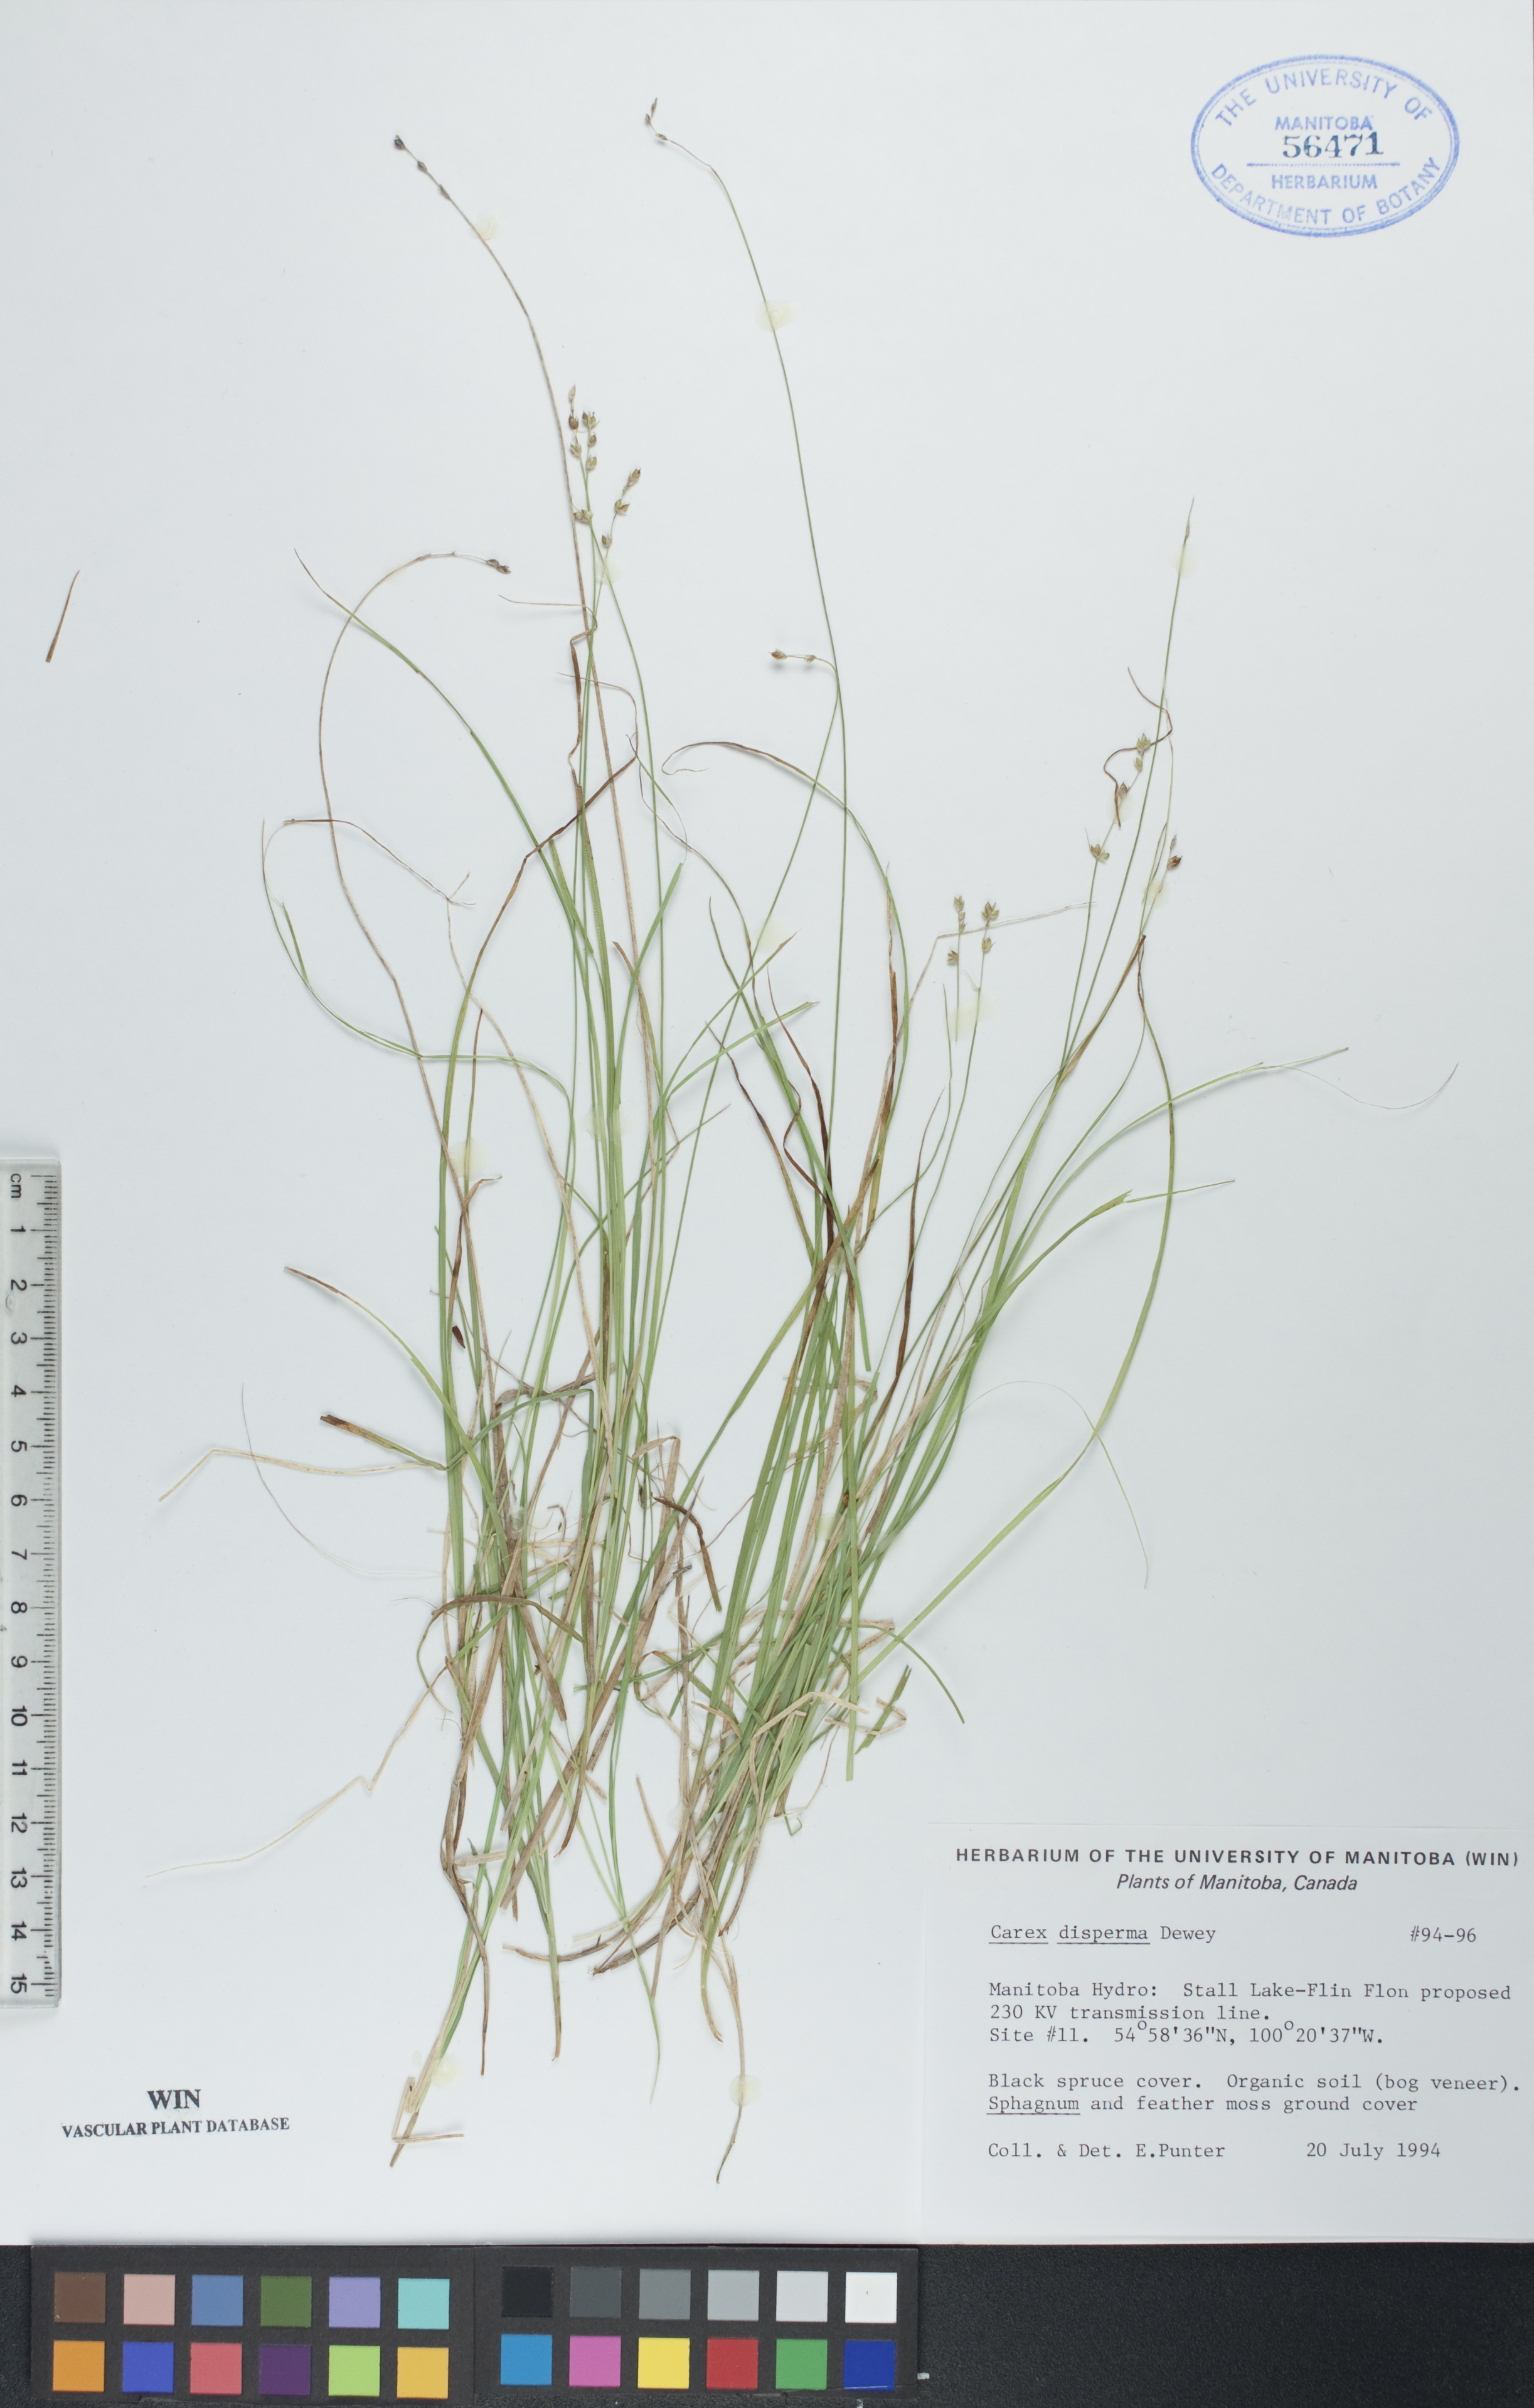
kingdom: Plantae
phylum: Tracheophyta
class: Liliopsida
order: Poales
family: Cyperaceae
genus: Carex
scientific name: Carex disperma
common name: Short-leaved sedge
